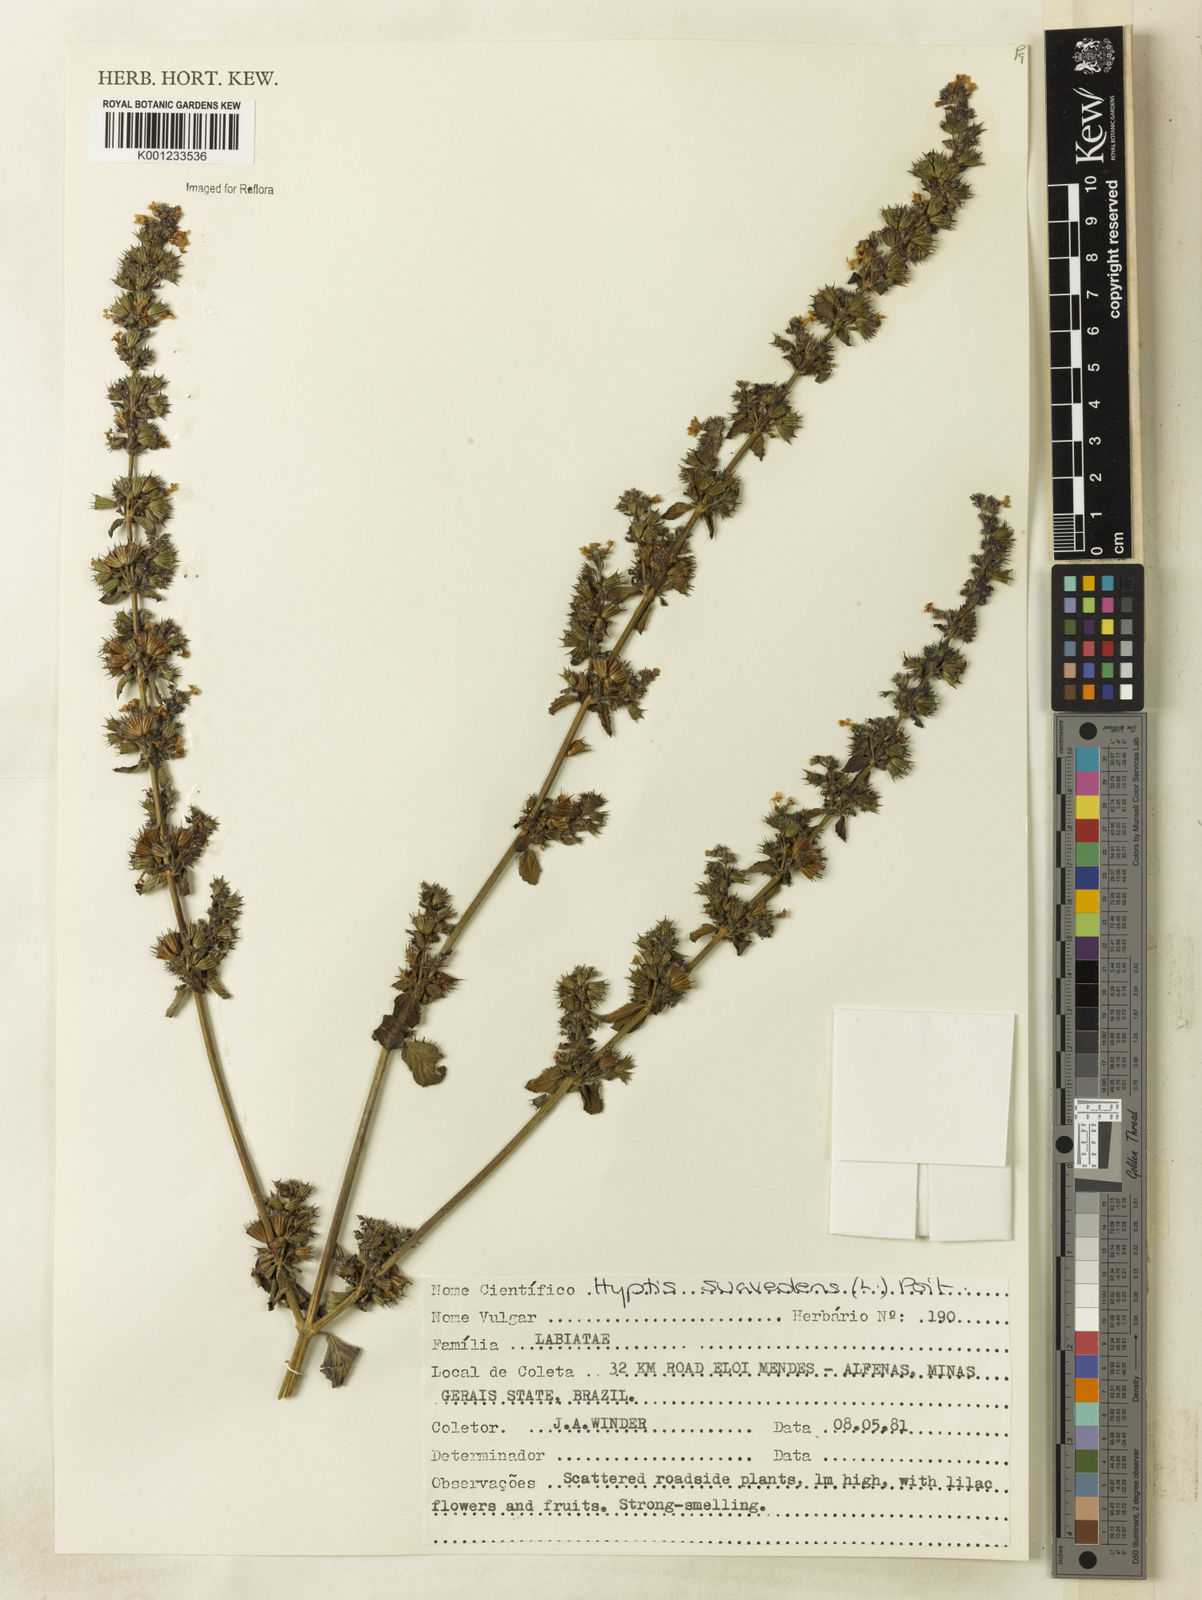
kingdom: Plantae
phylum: Tracheophyta
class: Magnoliopsida
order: Lamiales
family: Lamiaceae
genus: Mesosphaerum
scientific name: Mesosphaerum suaveolens
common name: Pignut
